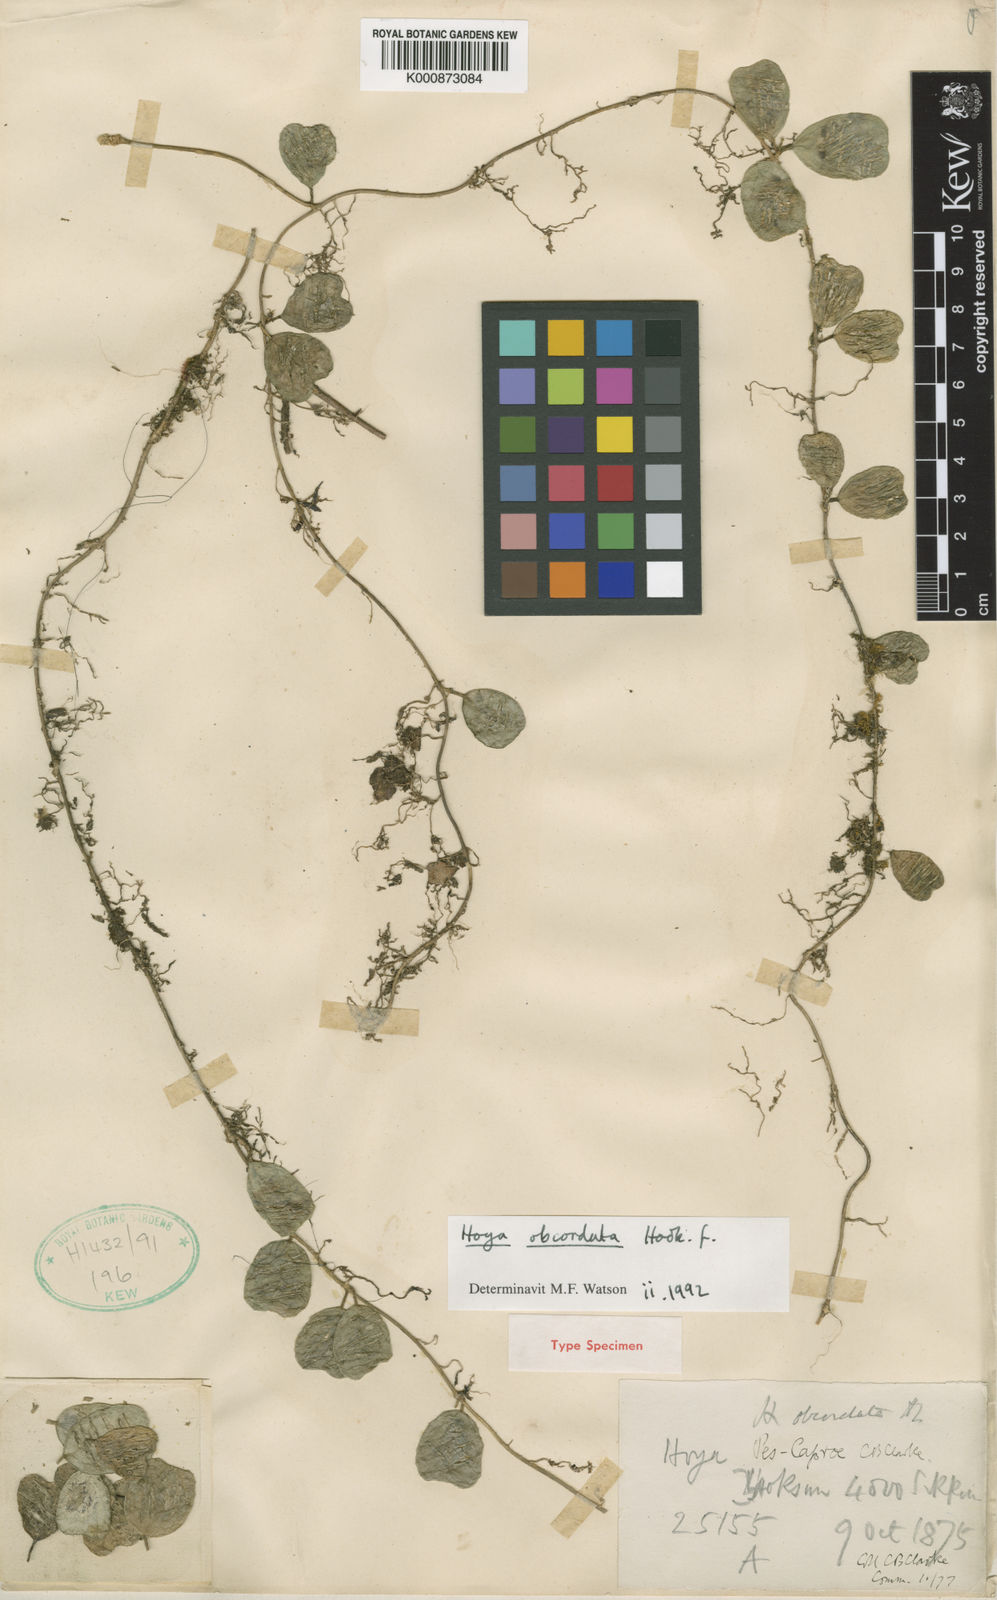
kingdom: Plantae
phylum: Tracheophyta
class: Magnoliopsida
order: Gentianales
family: Apocynaceae
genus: Hoya
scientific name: Hoya obcordata
